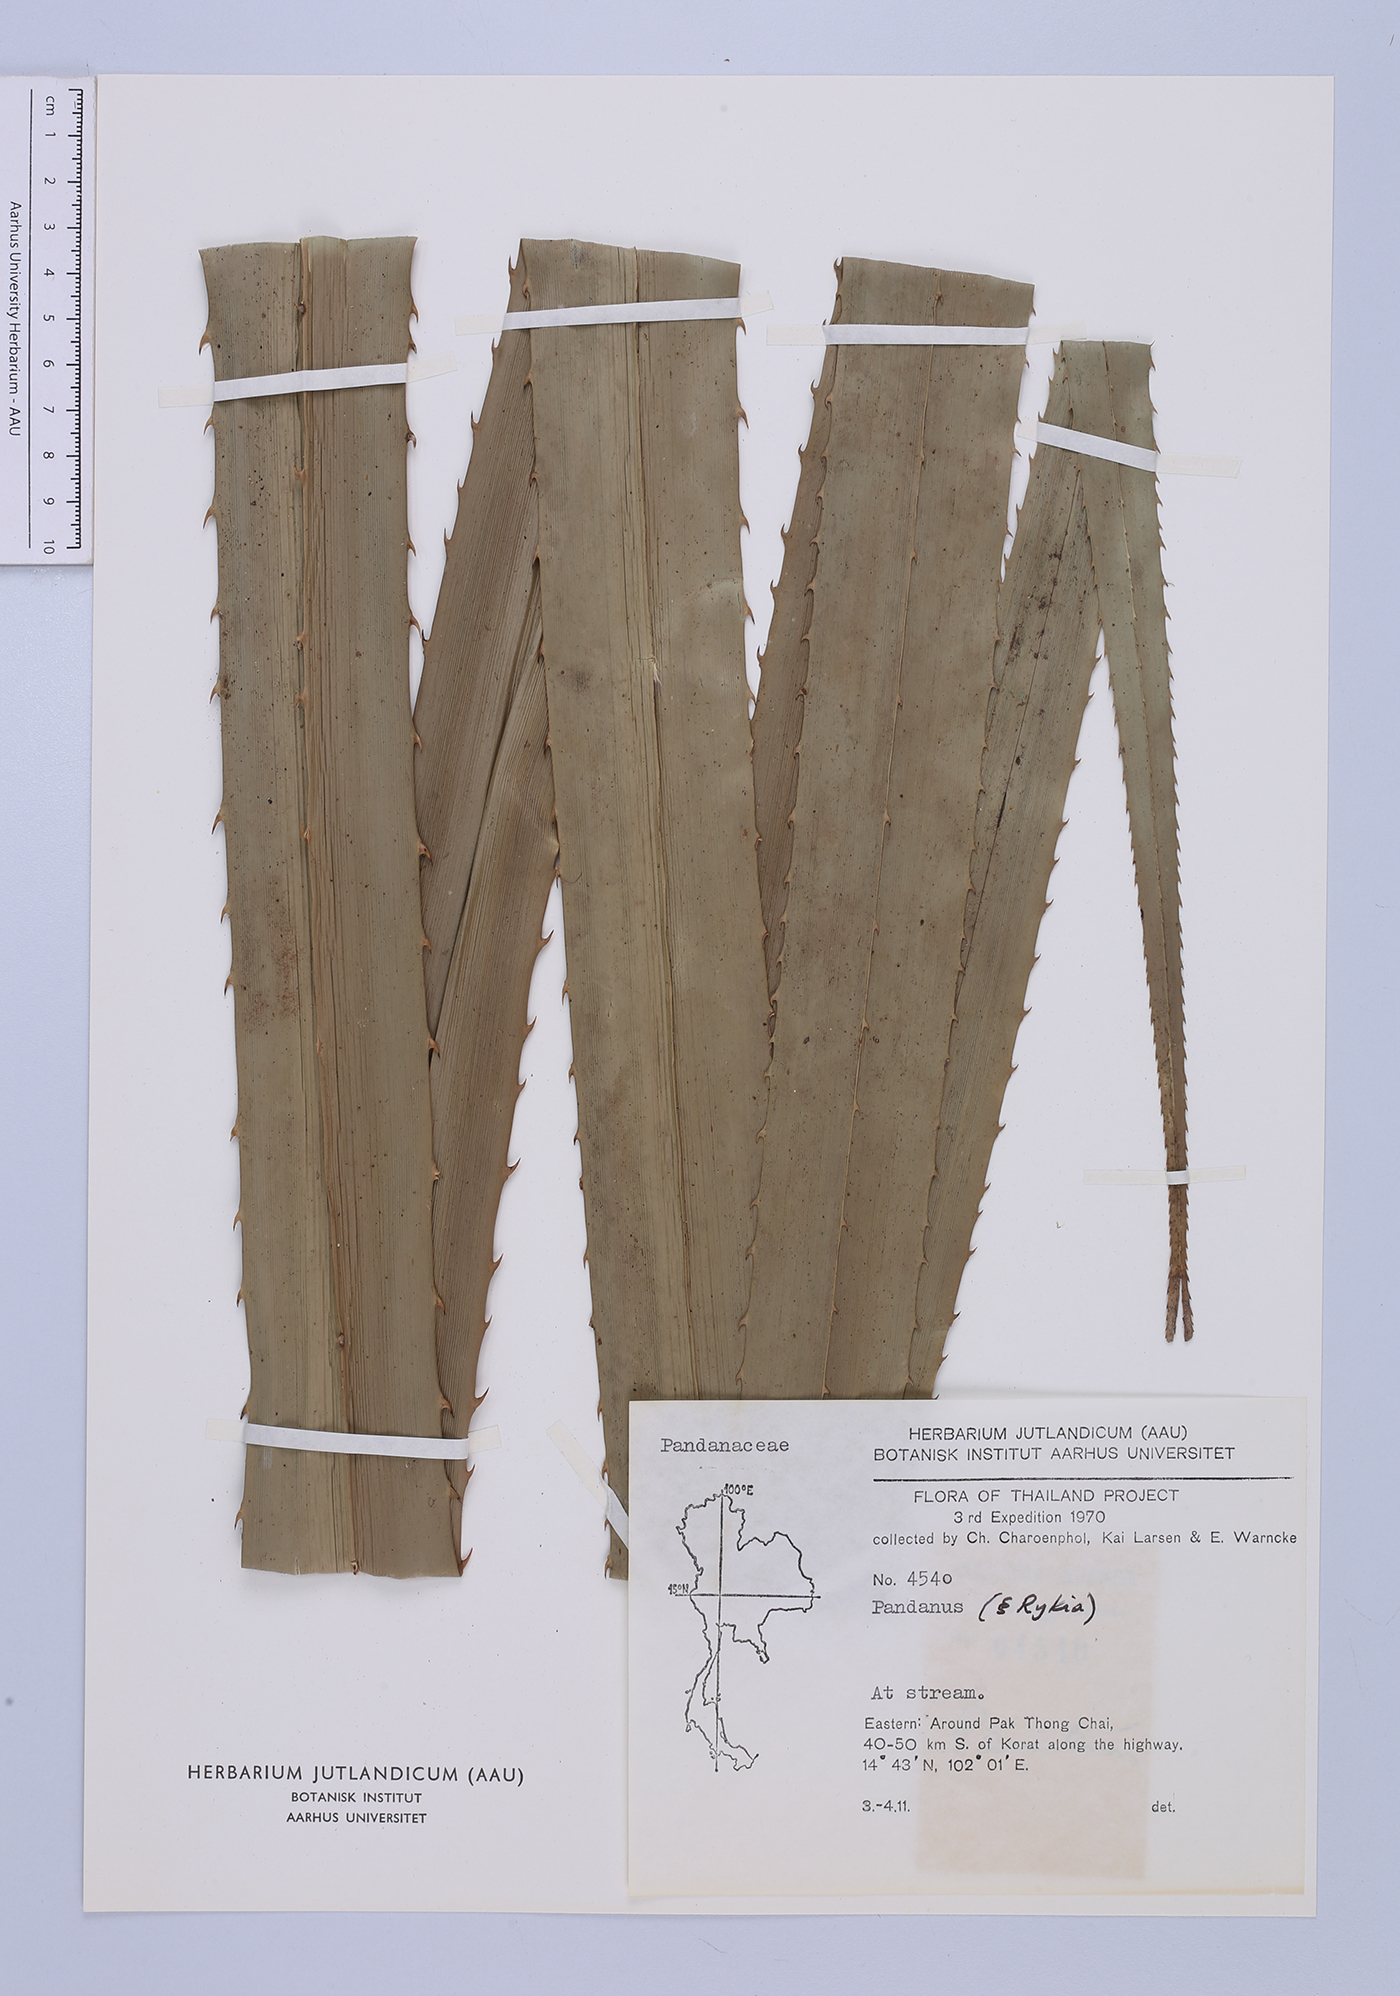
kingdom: Plantae
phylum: Tracheophyta
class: Liliopsida
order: Pandanales
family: Pandanaceae
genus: Pandanus
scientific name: Pandanus
